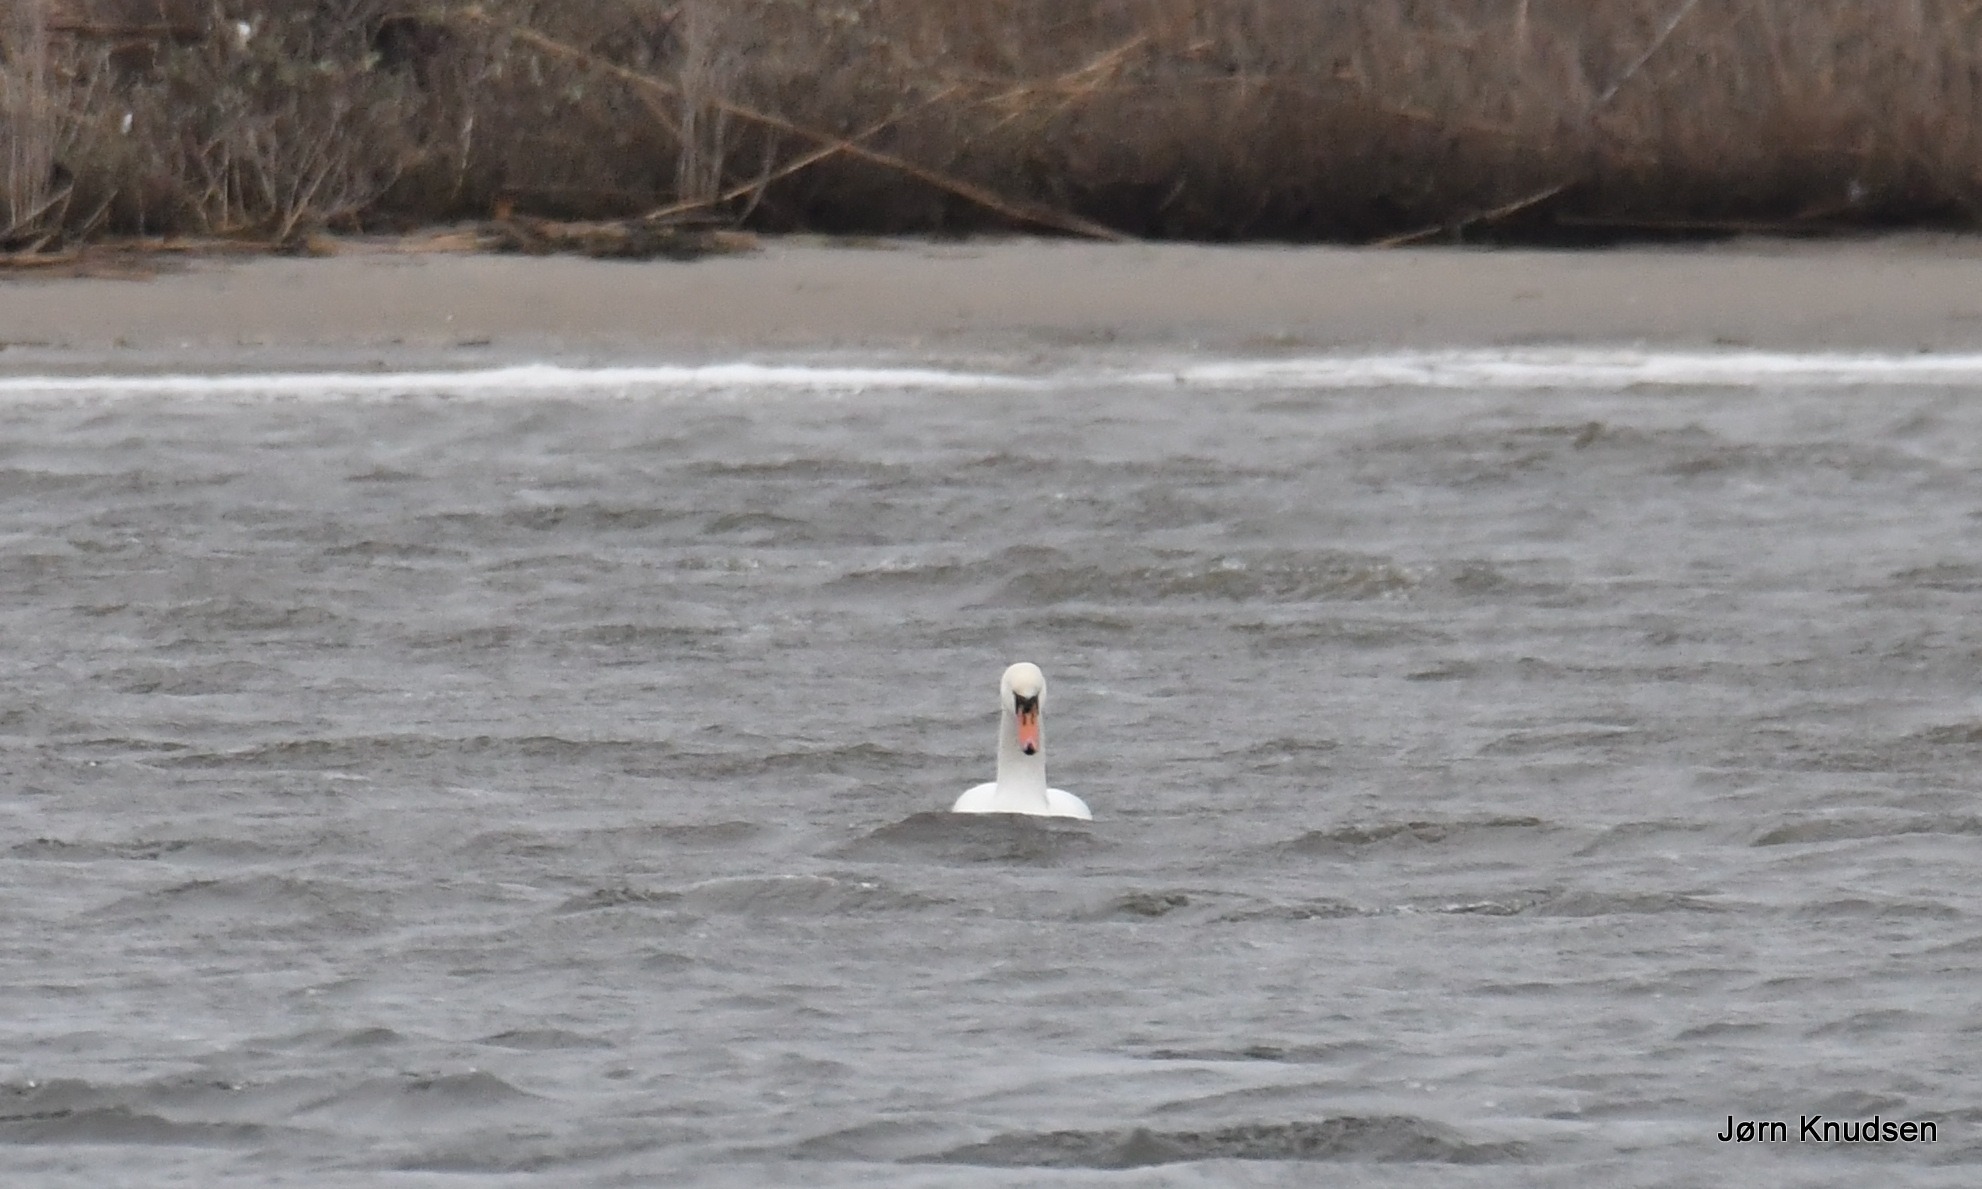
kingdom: Animalia
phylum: Chordata
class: Aves
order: Anseriformes
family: Anatidae
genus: Cygnus
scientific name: Cygnus olor
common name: Knopsvane
